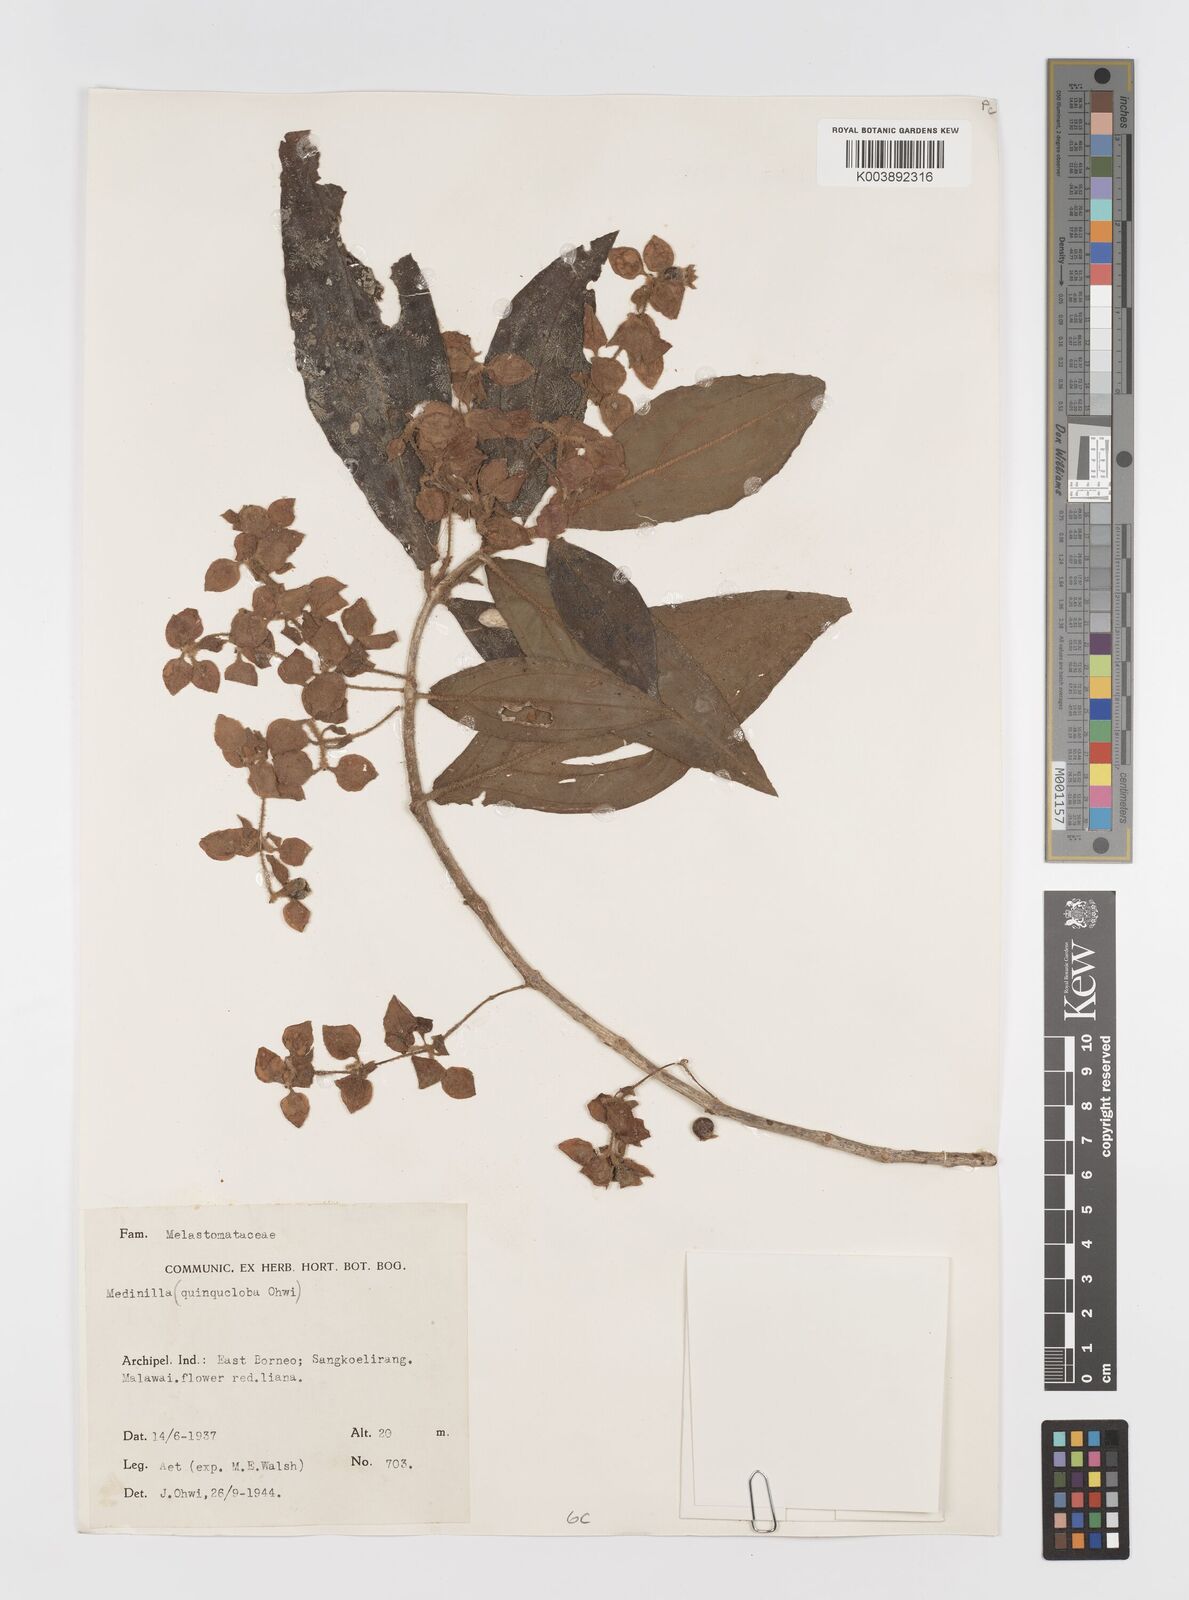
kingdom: Plantae
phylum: Tracheophyta
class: Magnoliopsida
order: Myrtales
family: Melastomataceae
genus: Medinilla
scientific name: Medinilla
